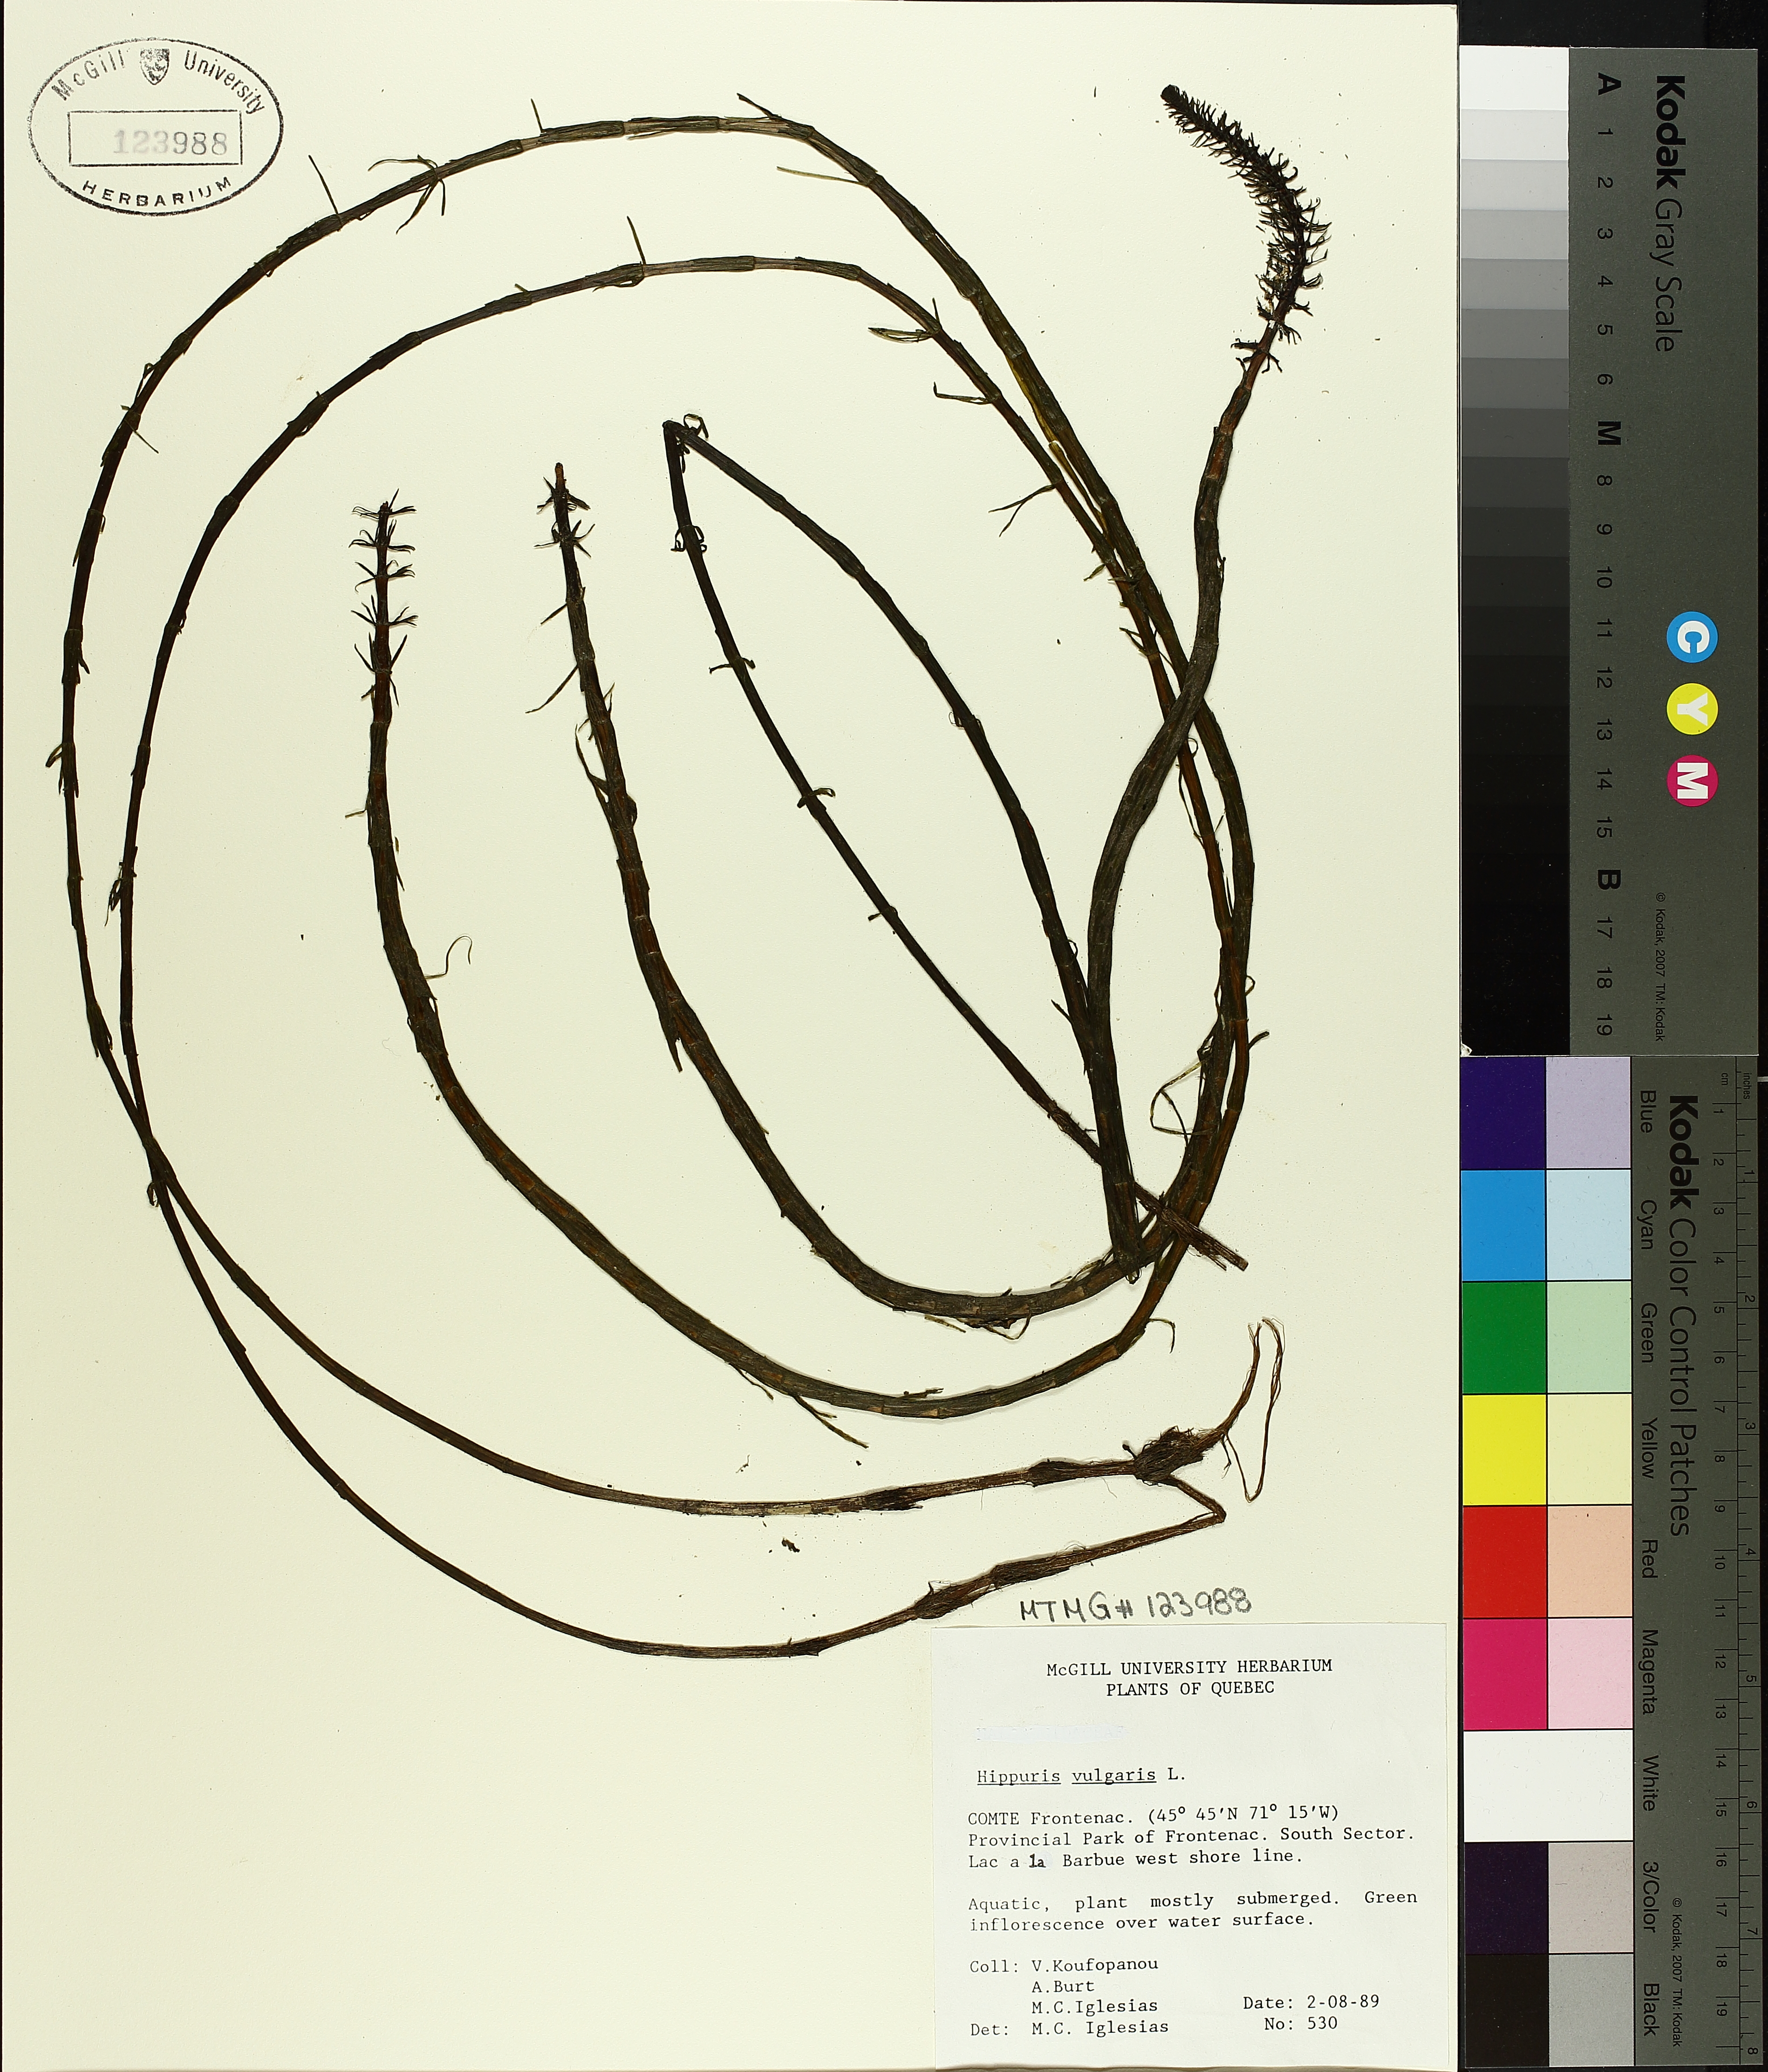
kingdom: Plantae
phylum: Tracheophyta
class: Magnoliopsida
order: Lamiales
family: Plantaginaceae
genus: Hippuris
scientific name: Hippuris vulgaris
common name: Mare's-tail
